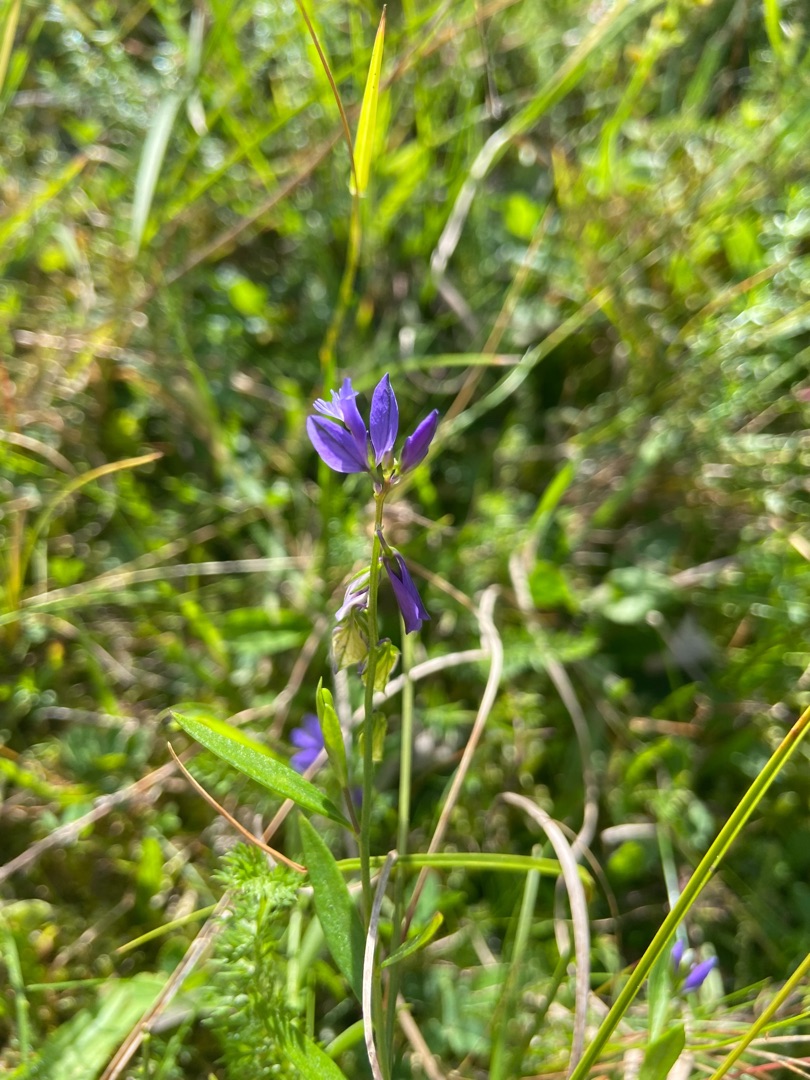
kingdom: Plantae
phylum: Tracheophyta
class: Magnoliopsida
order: Fabales
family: Polygalaceae
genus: Polygala
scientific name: Polygala vulgaris
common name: Almindelig mælkeurt
